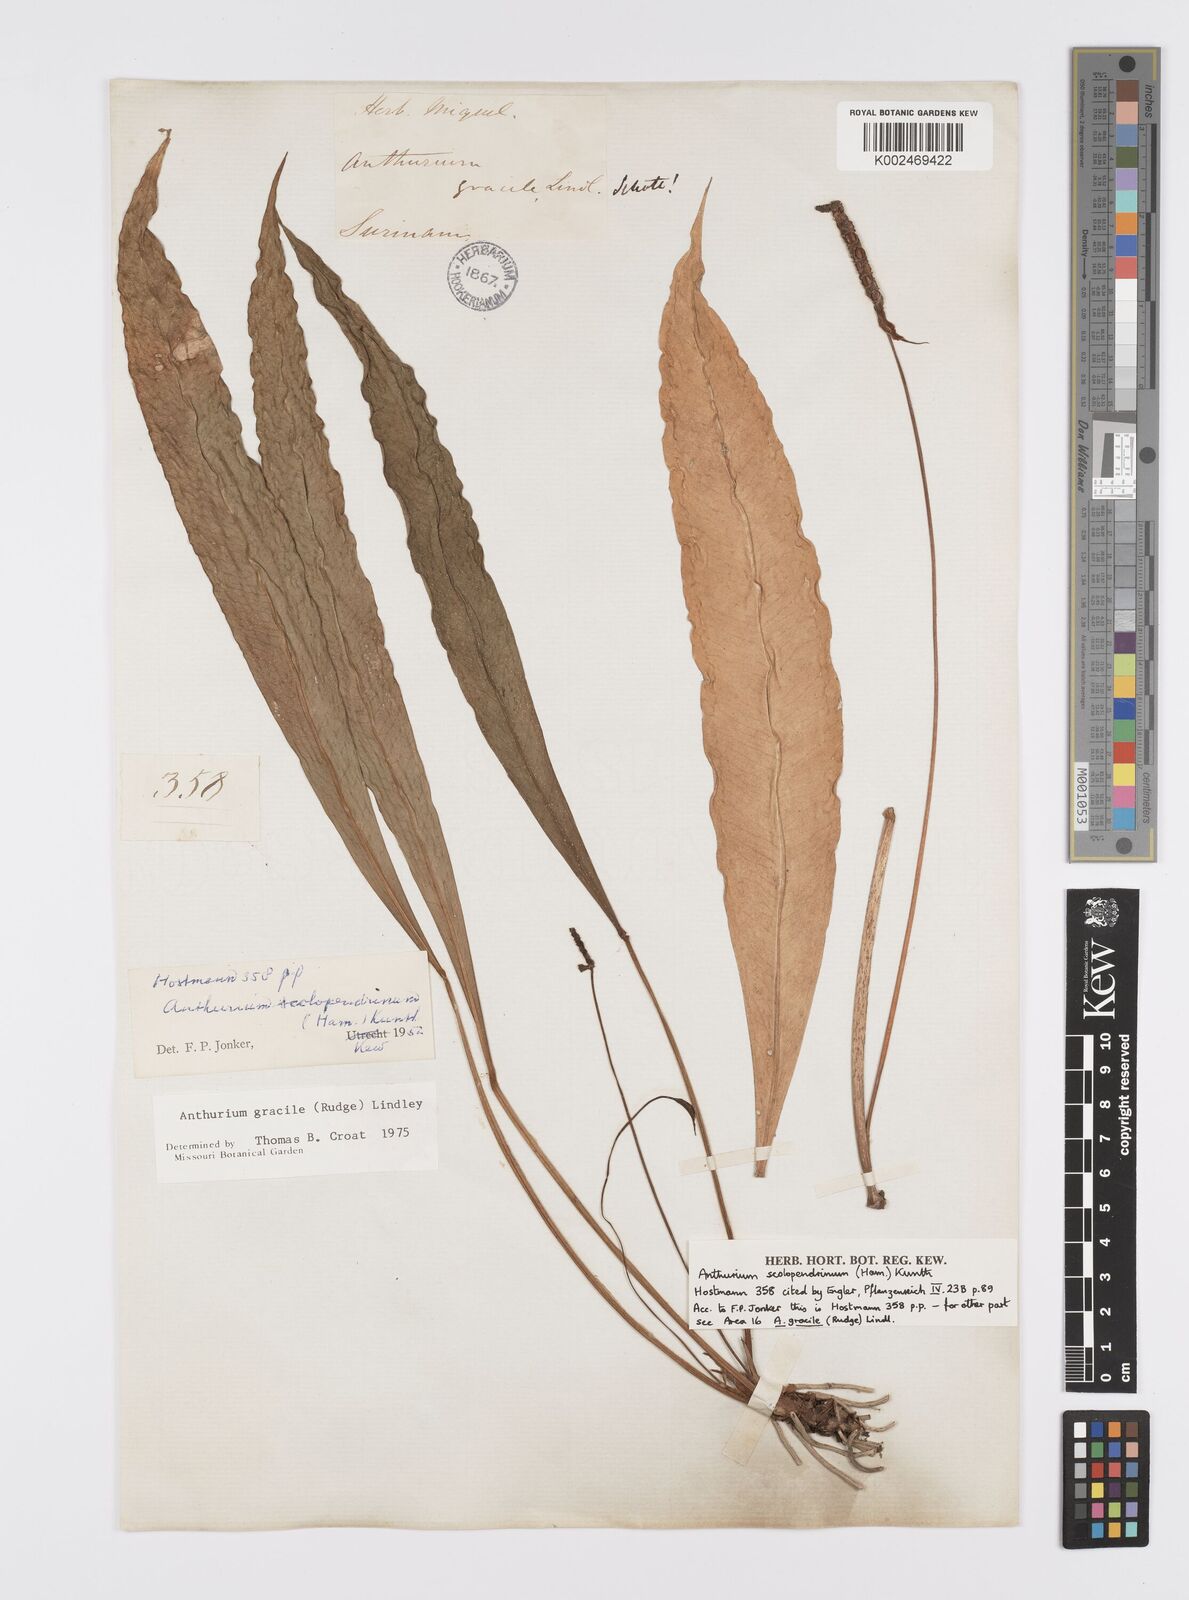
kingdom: Plantae
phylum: Tracheophyta
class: Liliopsida
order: Alismatales
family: Araceae
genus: Anthurium
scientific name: Anthurium gracile
